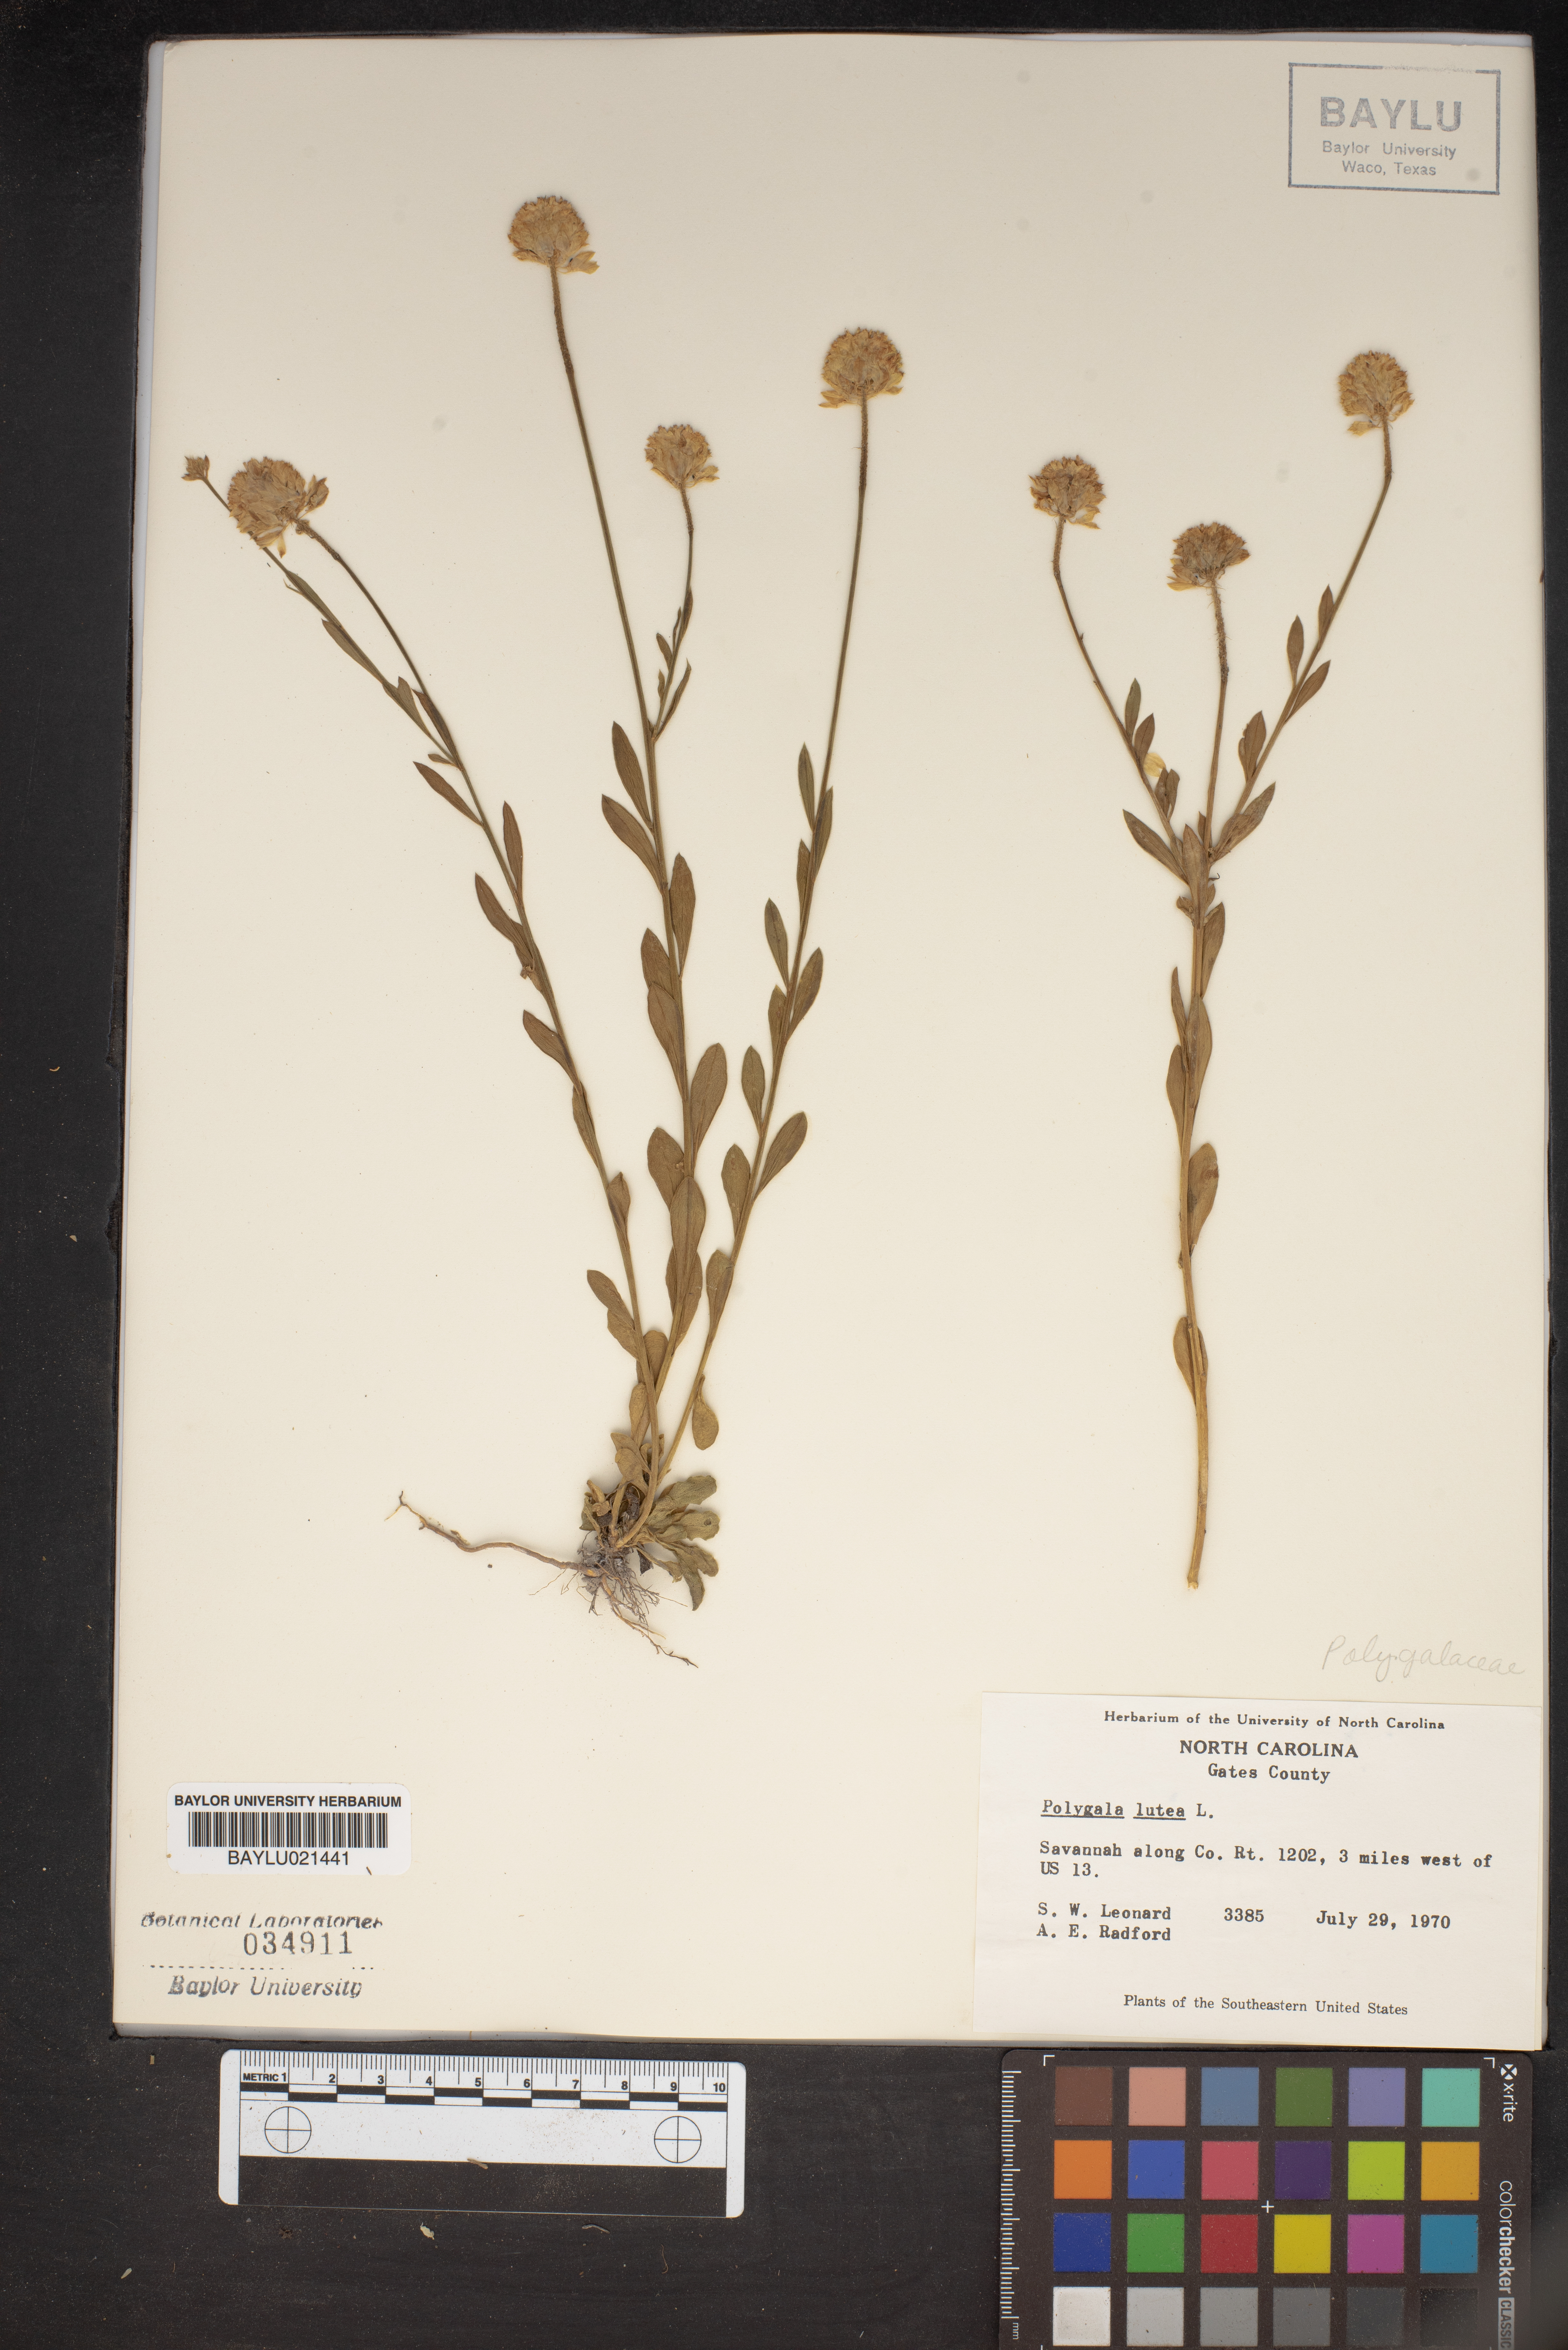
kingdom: Plantae
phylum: Tracheophyta
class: Magnoliopsida
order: Fabales
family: Polygalaceae
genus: Polygala
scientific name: Polygala lutea
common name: Orange milkwort
